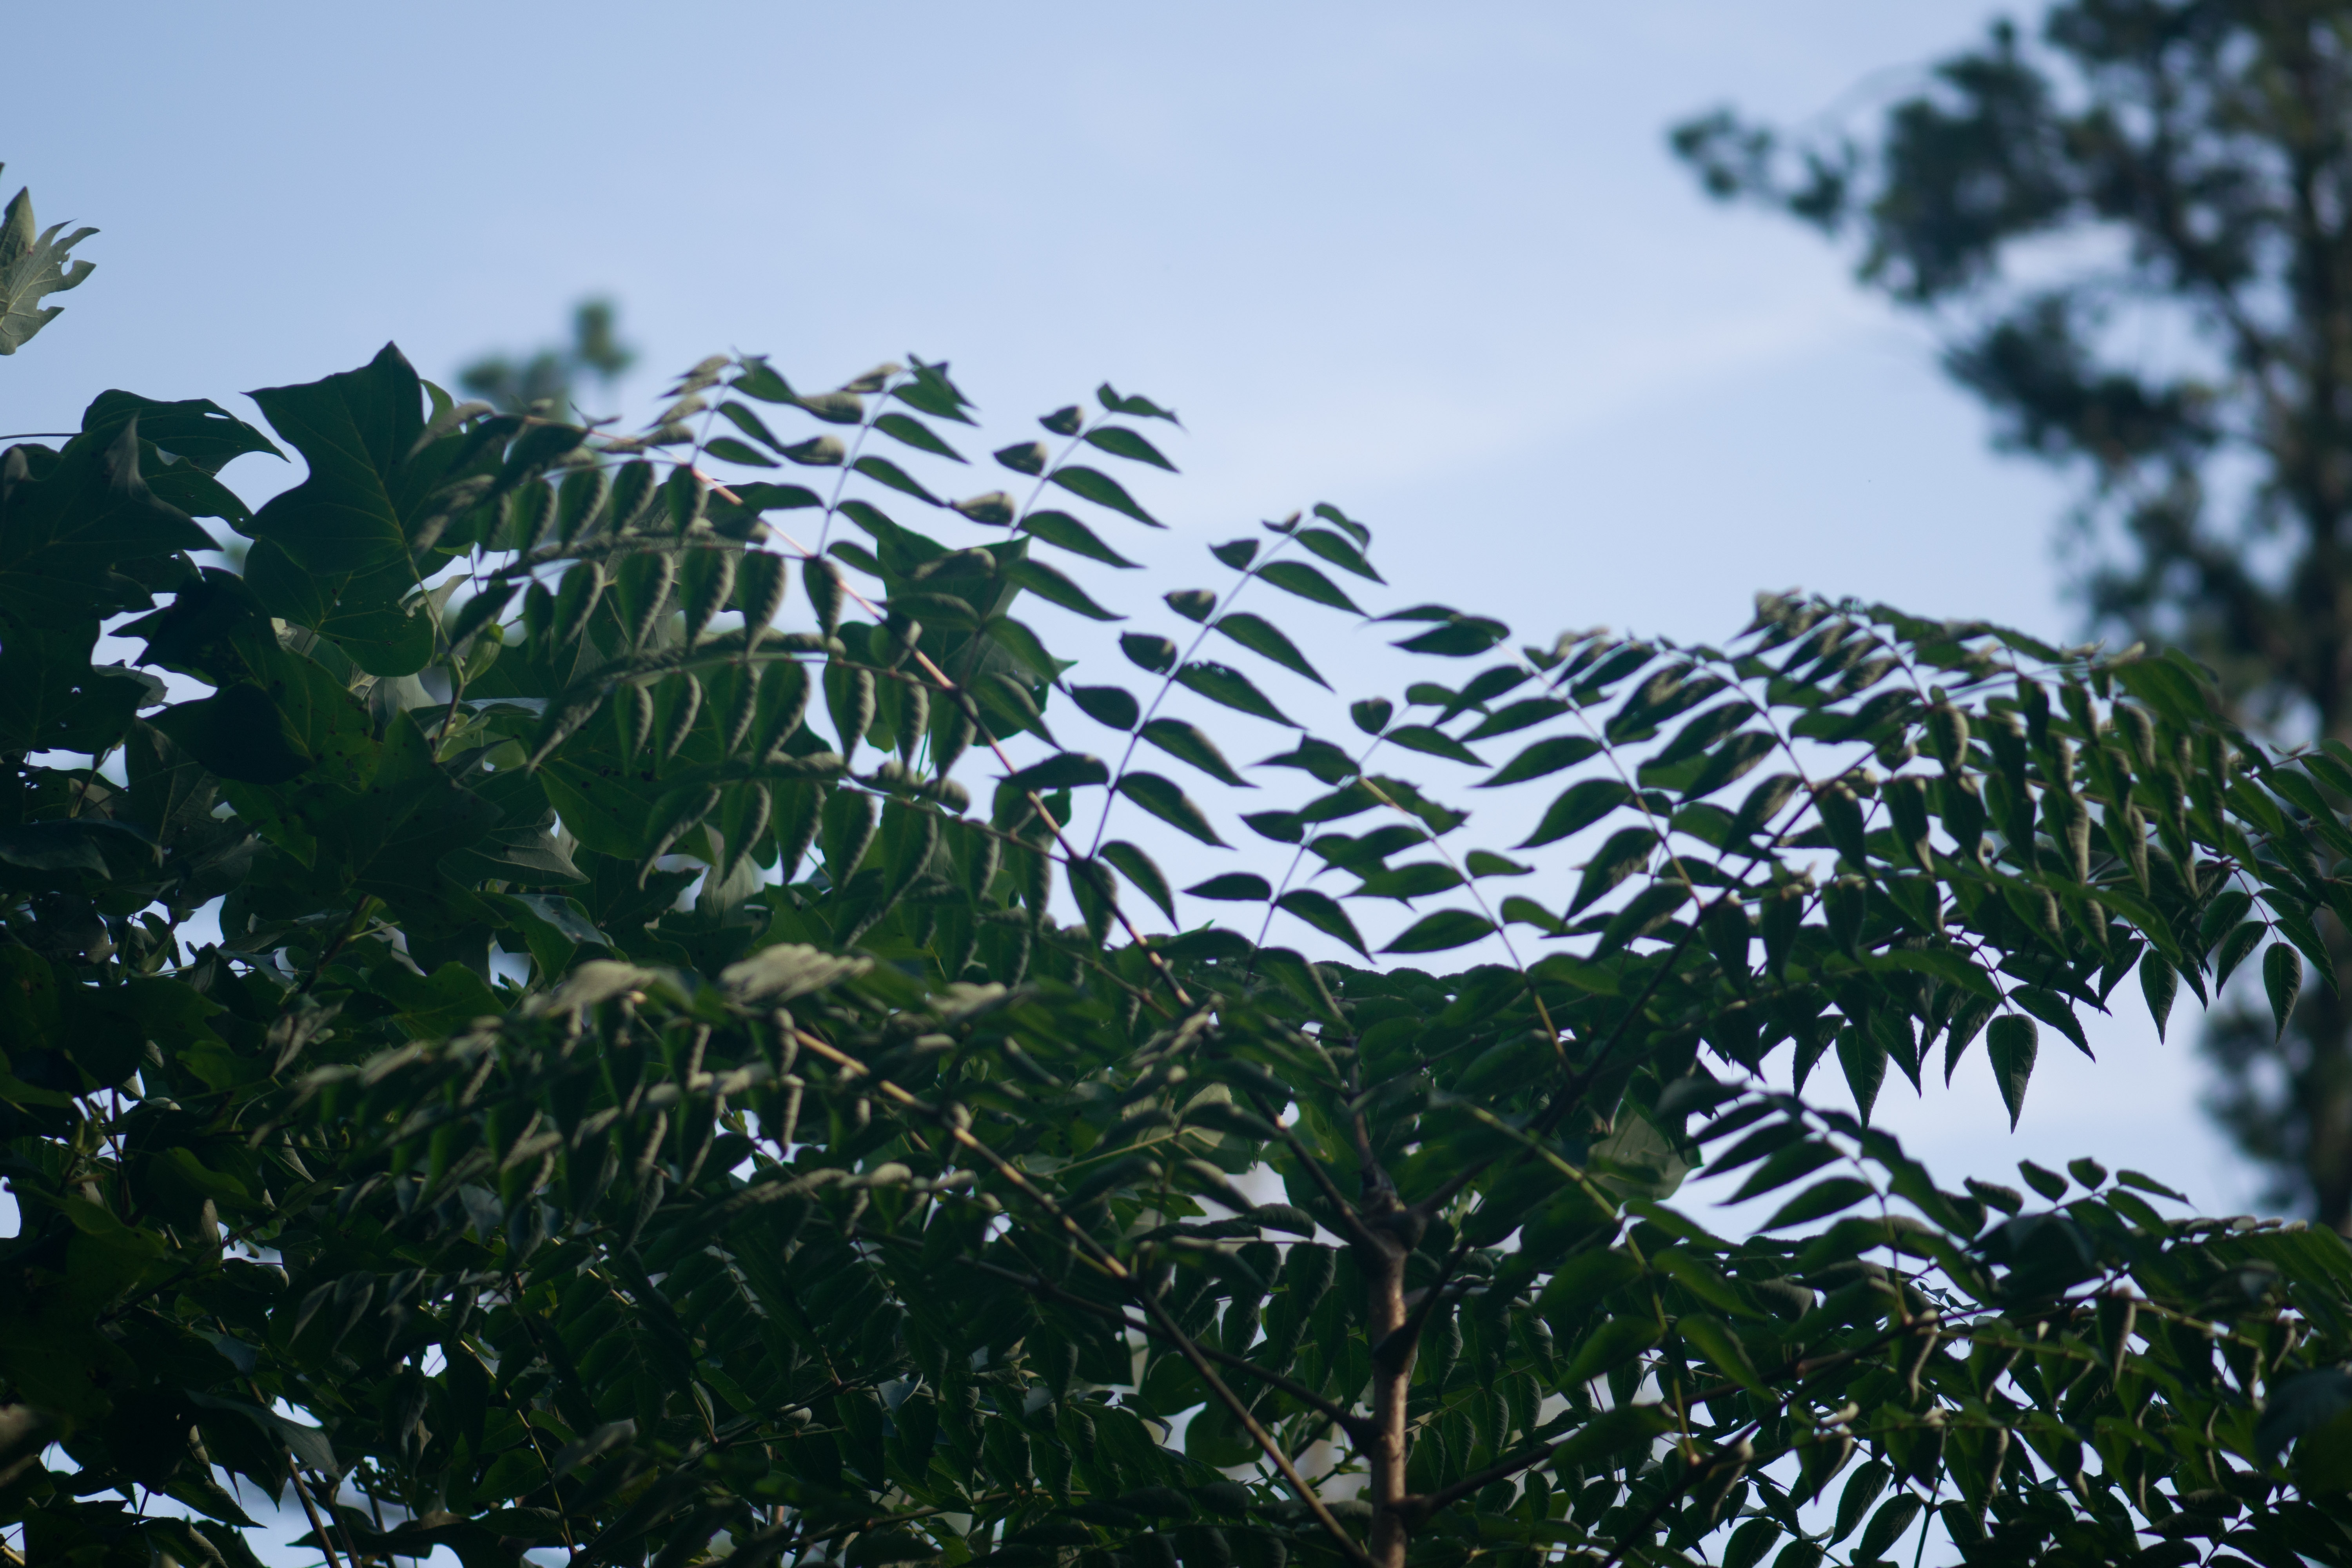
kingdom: Plantae
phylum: Tracheophyta
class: Magnoliopsida
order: Apiales
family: Araliaceae
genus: Aralia
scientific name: Aralia elata
